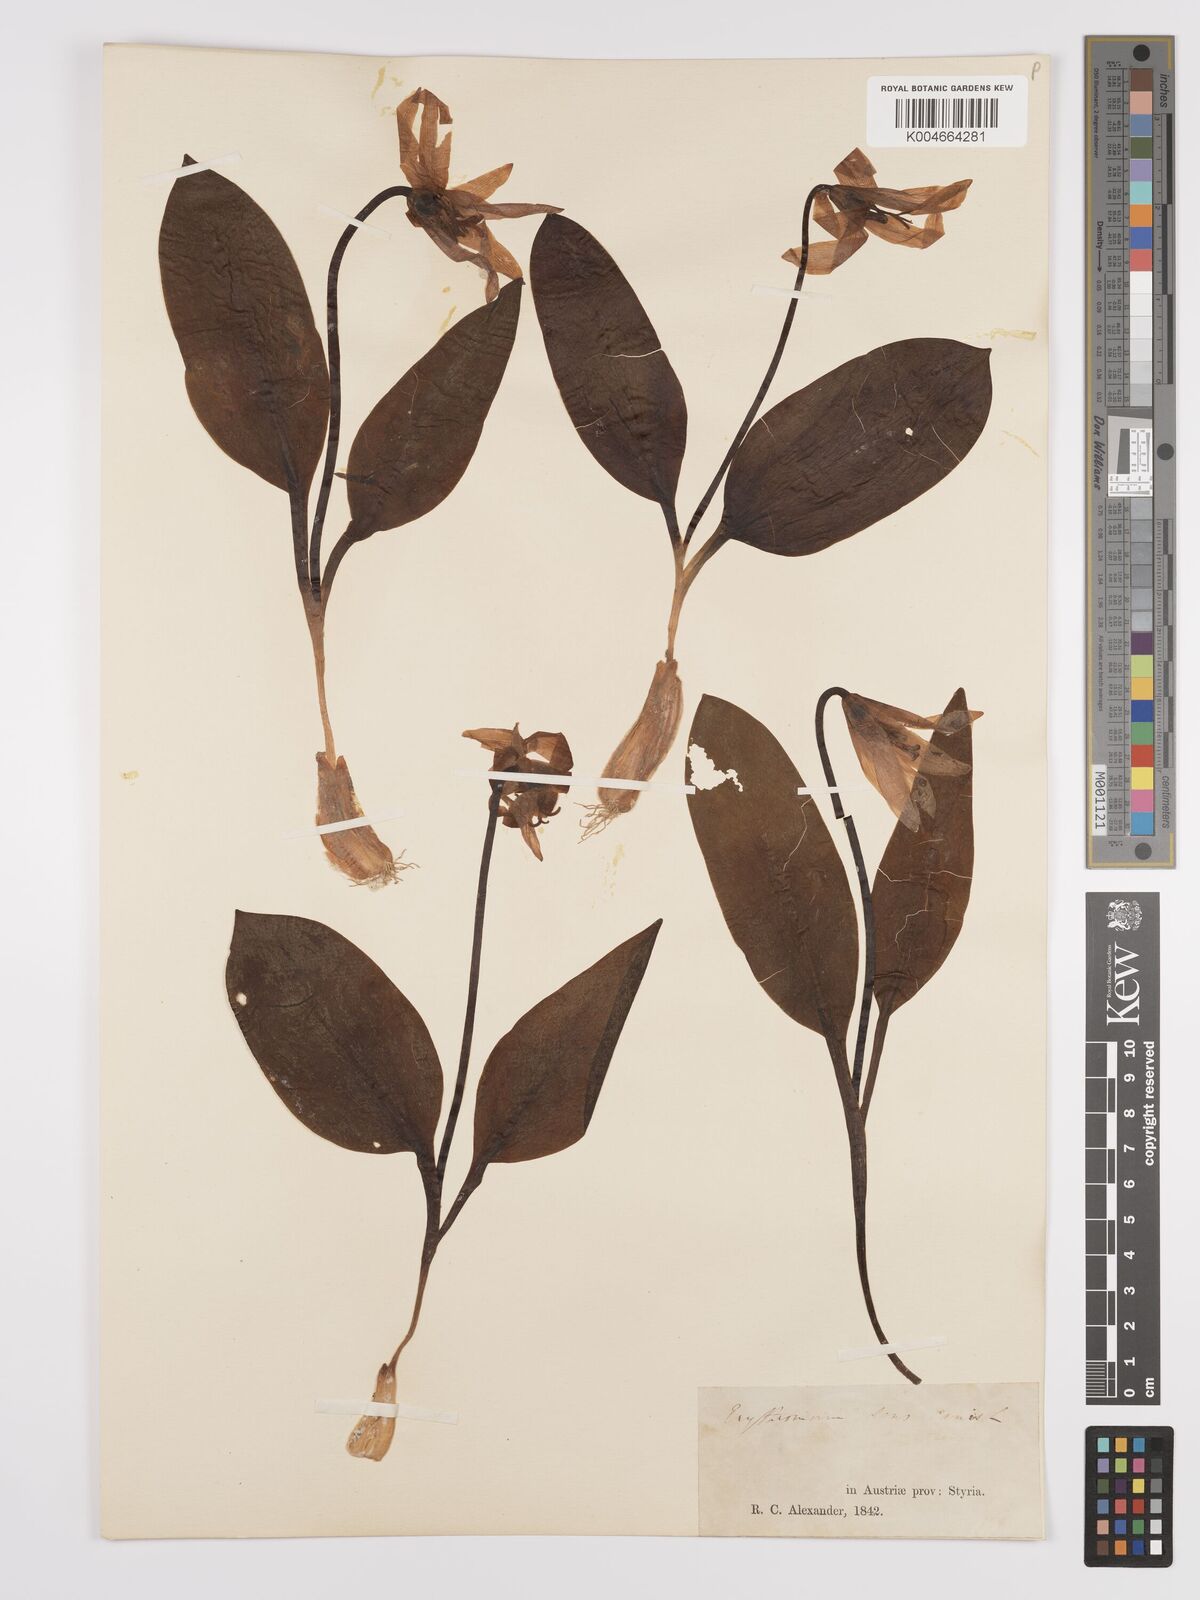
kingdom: Plantae
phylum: Tracheophyta
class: Liliopsida
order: Liliales
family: Liliaceae
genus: Erythronium
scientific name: Erythronium dens-canis
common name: Dog's-tooth-violet
